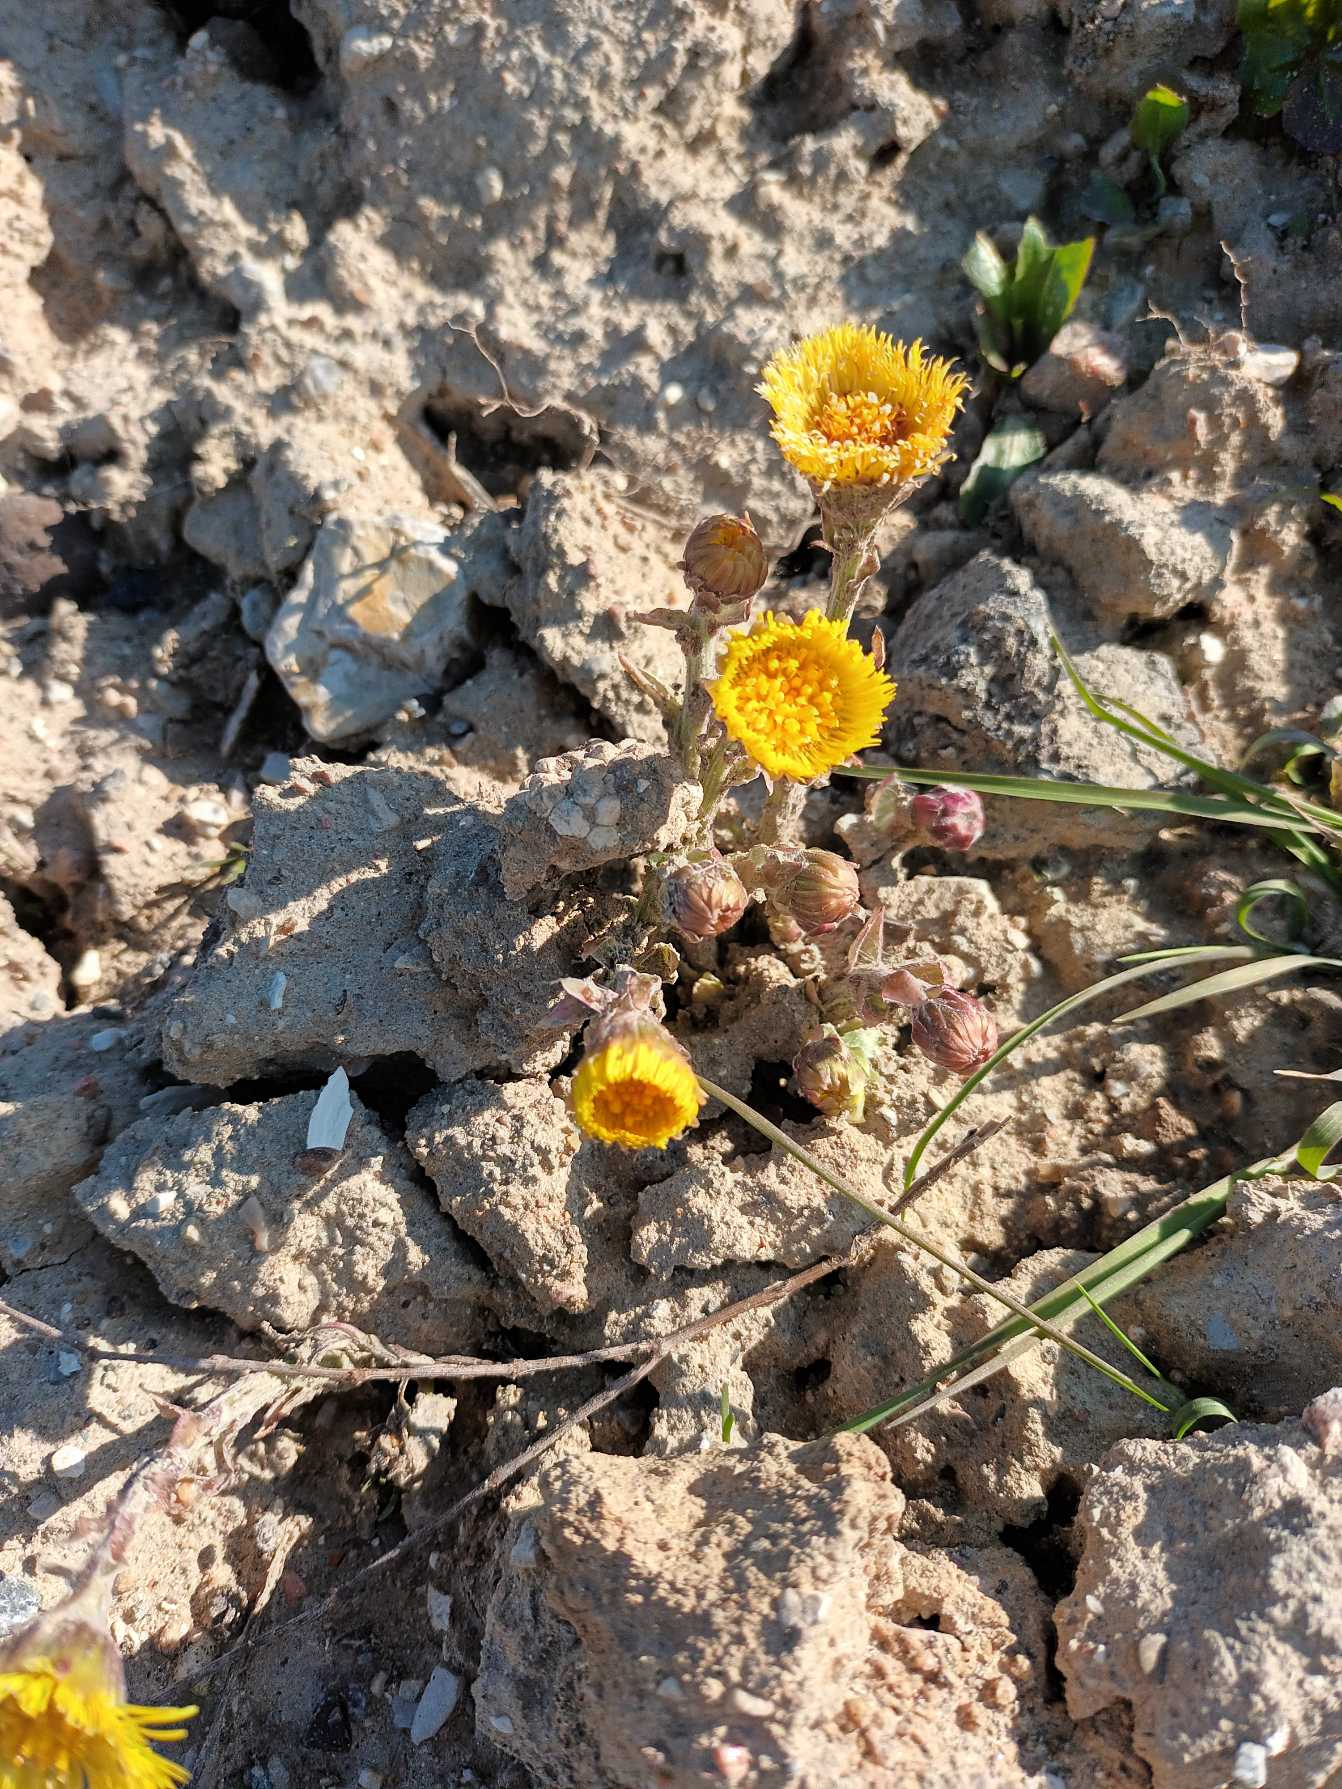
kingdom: Plantae
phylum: Tracheophyta
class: Magnoliopsida
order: Asterales
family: Asteraceae
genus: Tussilago
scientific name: Tussilago farfara
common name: Følfod
